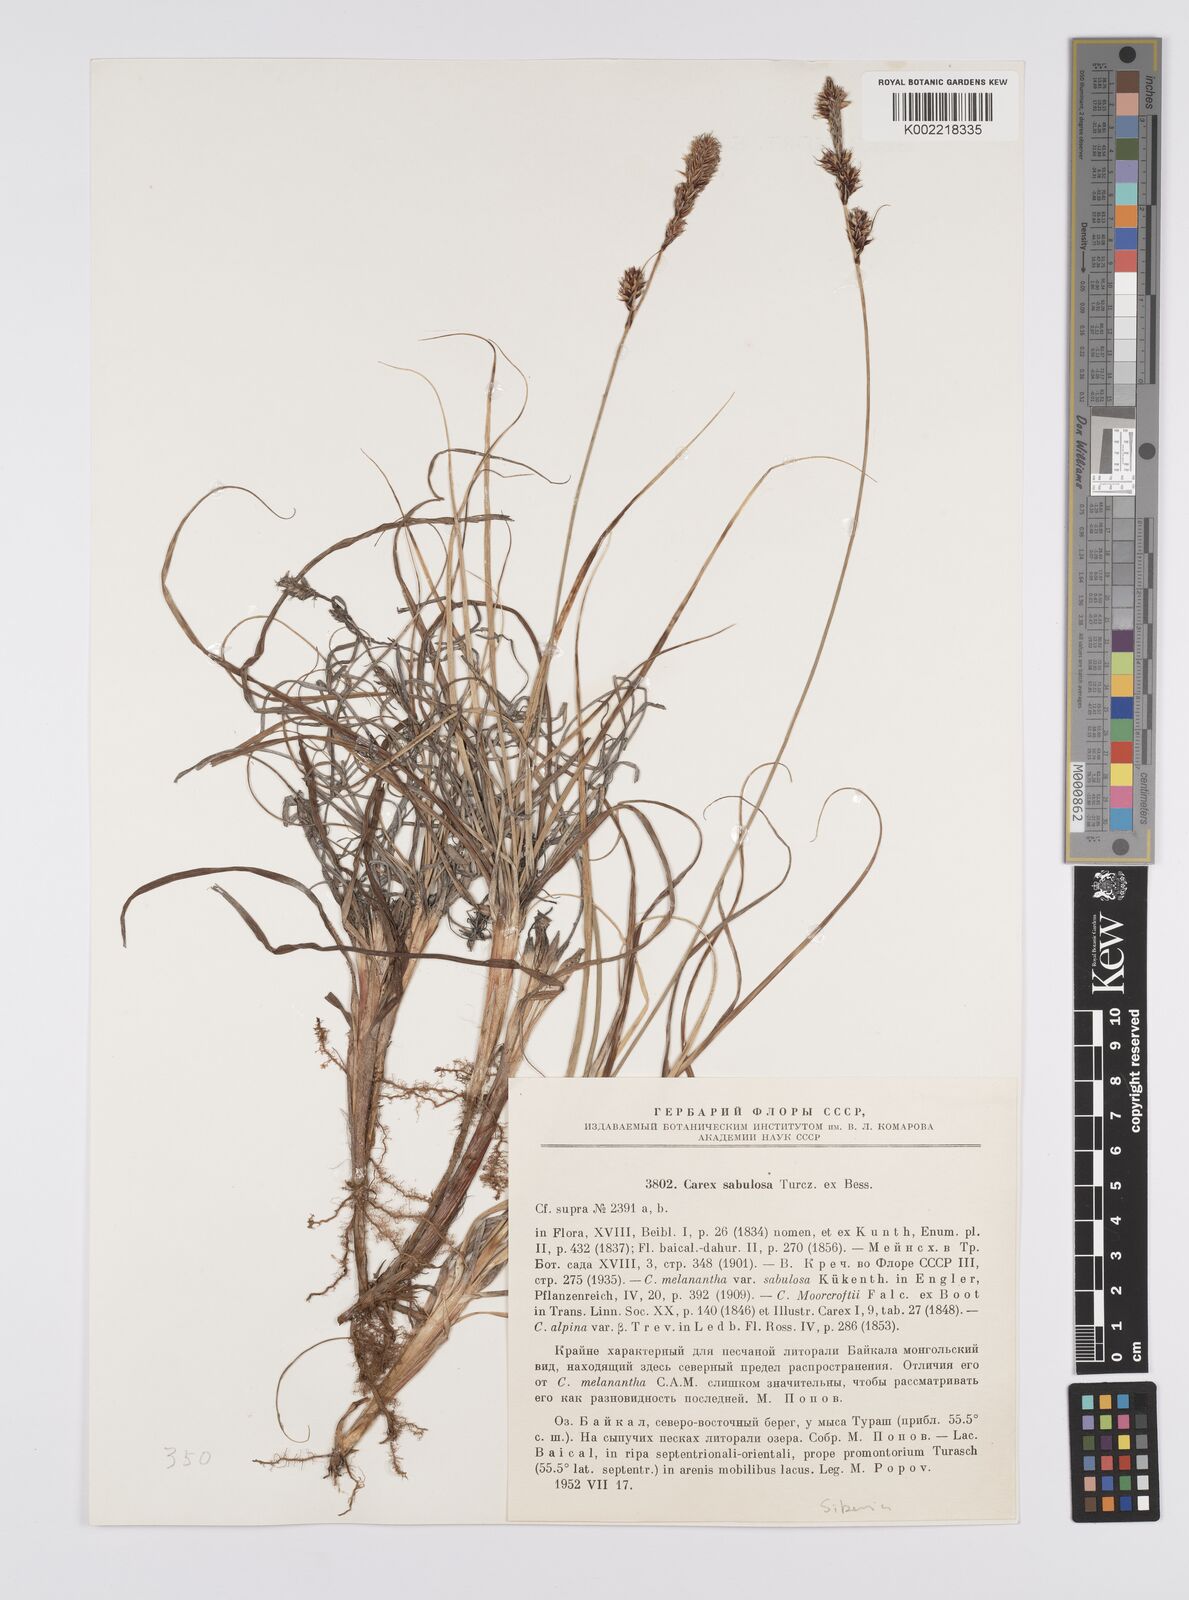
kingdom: Plantae
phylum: Tracheophyta
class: Liliopsida
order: Poales
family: Cyperaceae
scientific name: Cyperaceae
